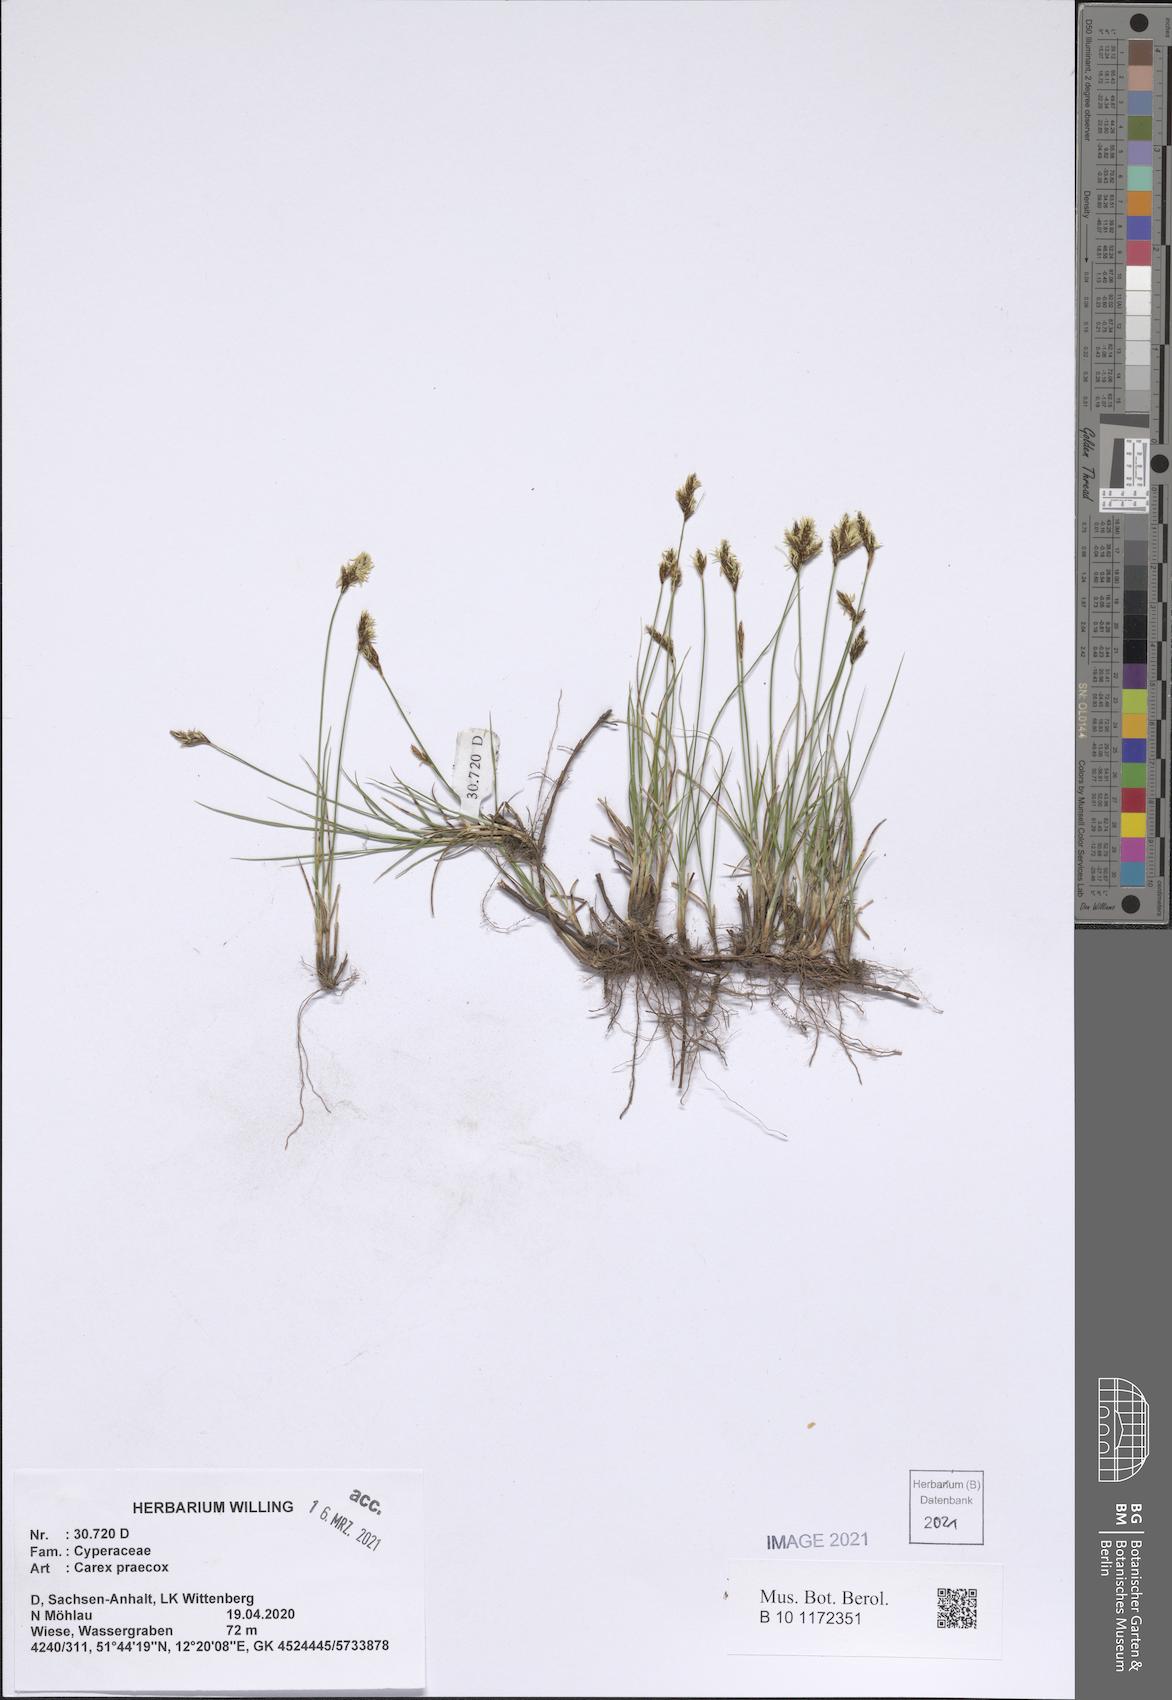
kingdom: Plantae
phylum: Tracheophyta
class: Liliopsida
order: Poales
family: Cyperaceae
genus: Carex
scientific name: Carex praecox
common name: Early sedge
